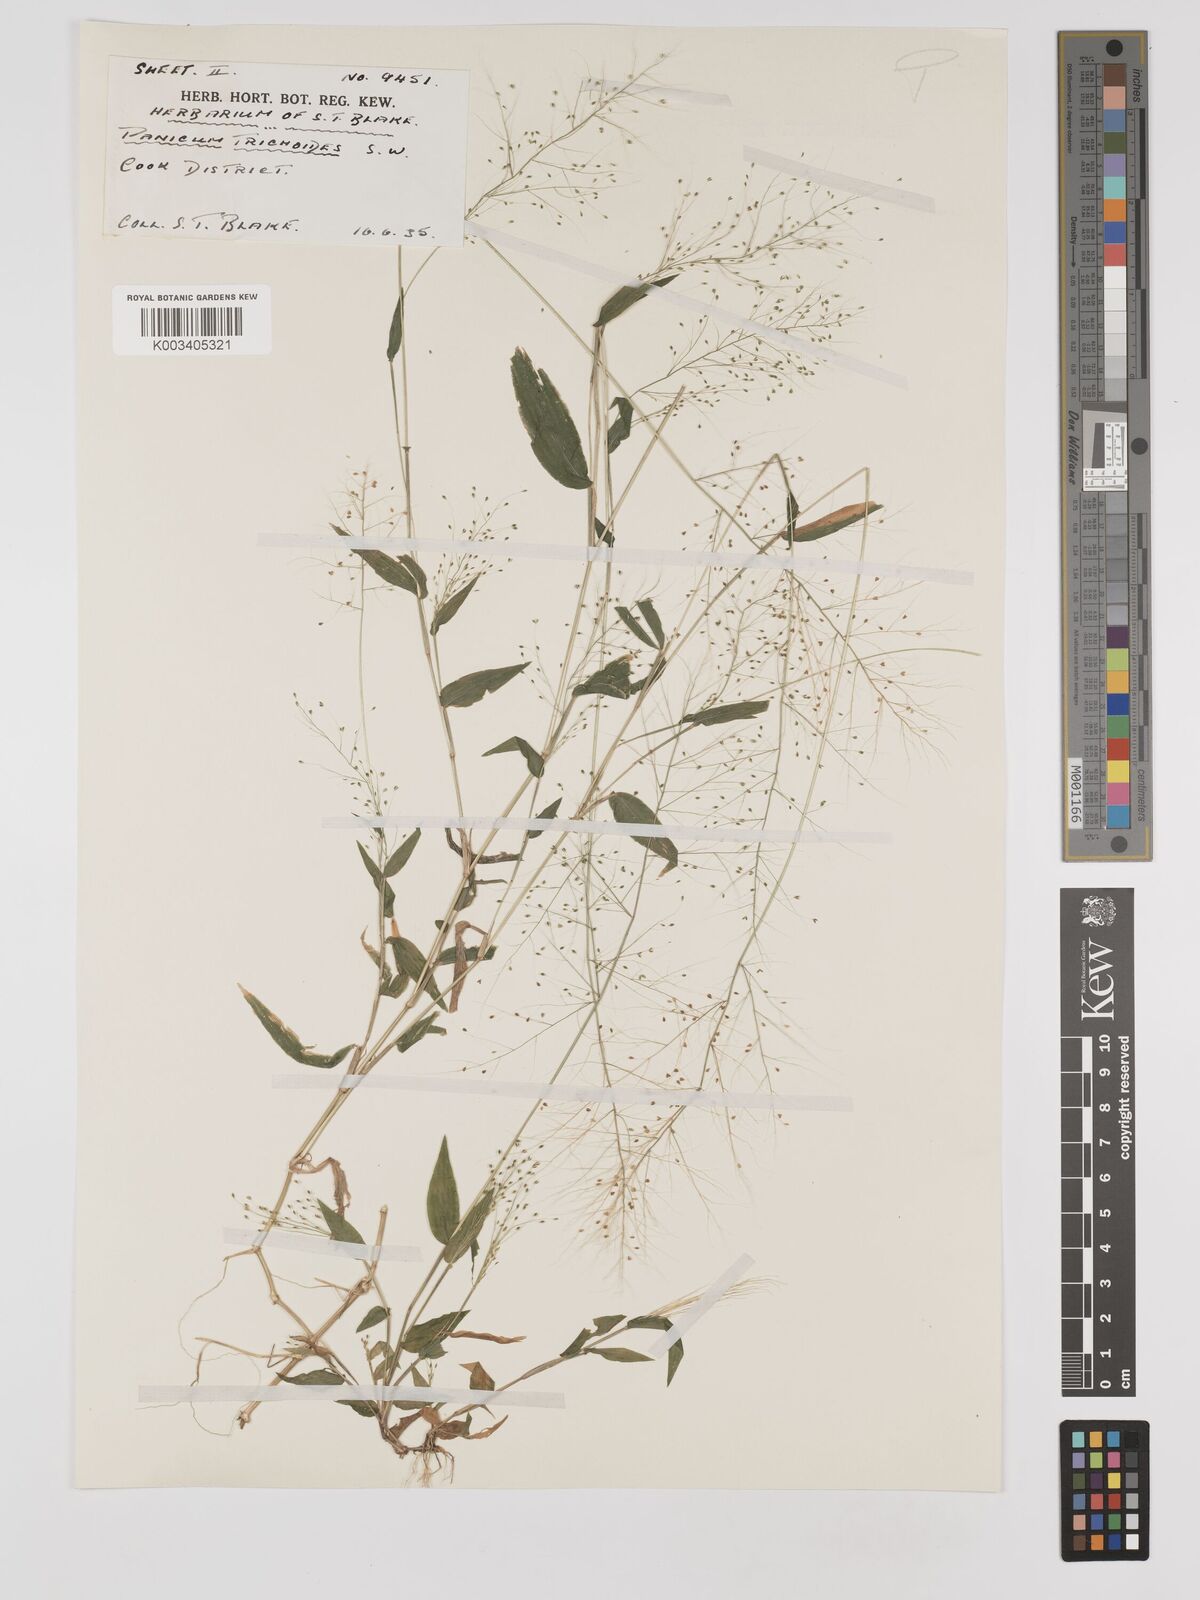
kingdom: Plantae
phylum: Tracheophyta
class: Liliopsida
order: Poales
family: Poaceae
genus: Panicum
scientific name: Panicum trichoides
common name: Tickle grass
